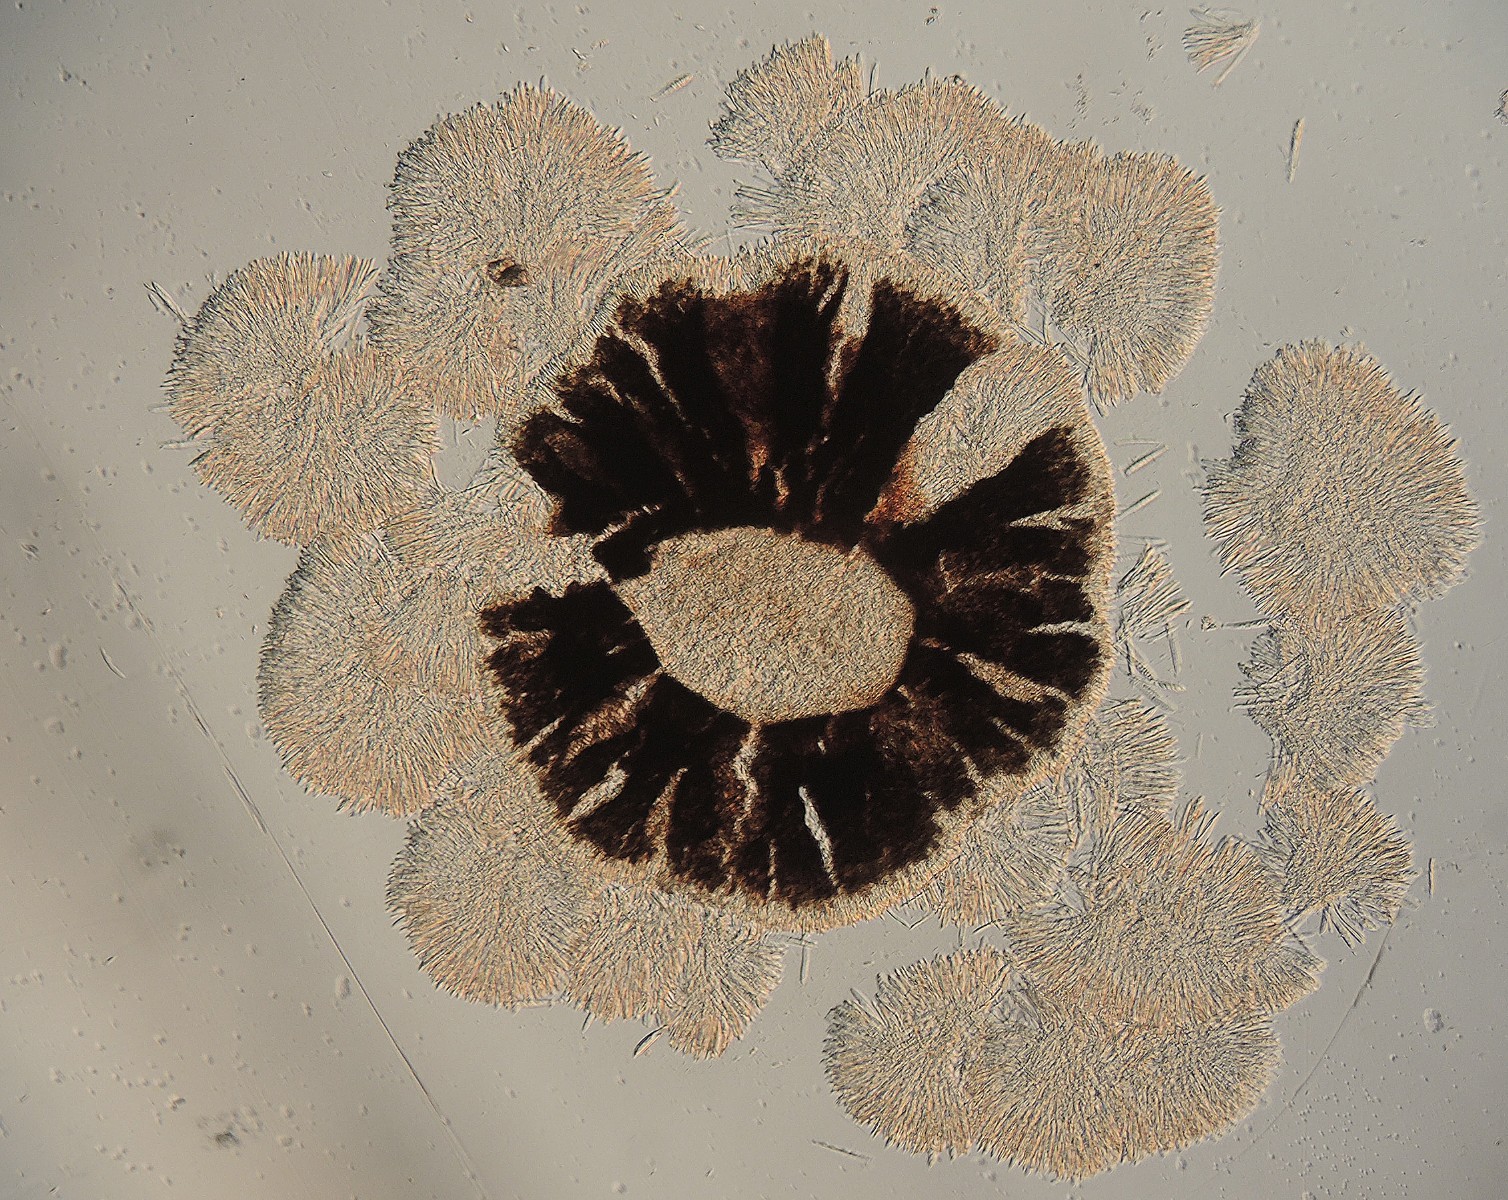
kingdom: Fungi
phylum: Ascomycota
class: Leotiomycetes
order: Helotiales
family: Ploettnerulaceae
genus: Belonium
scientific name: Belonium psammicola
